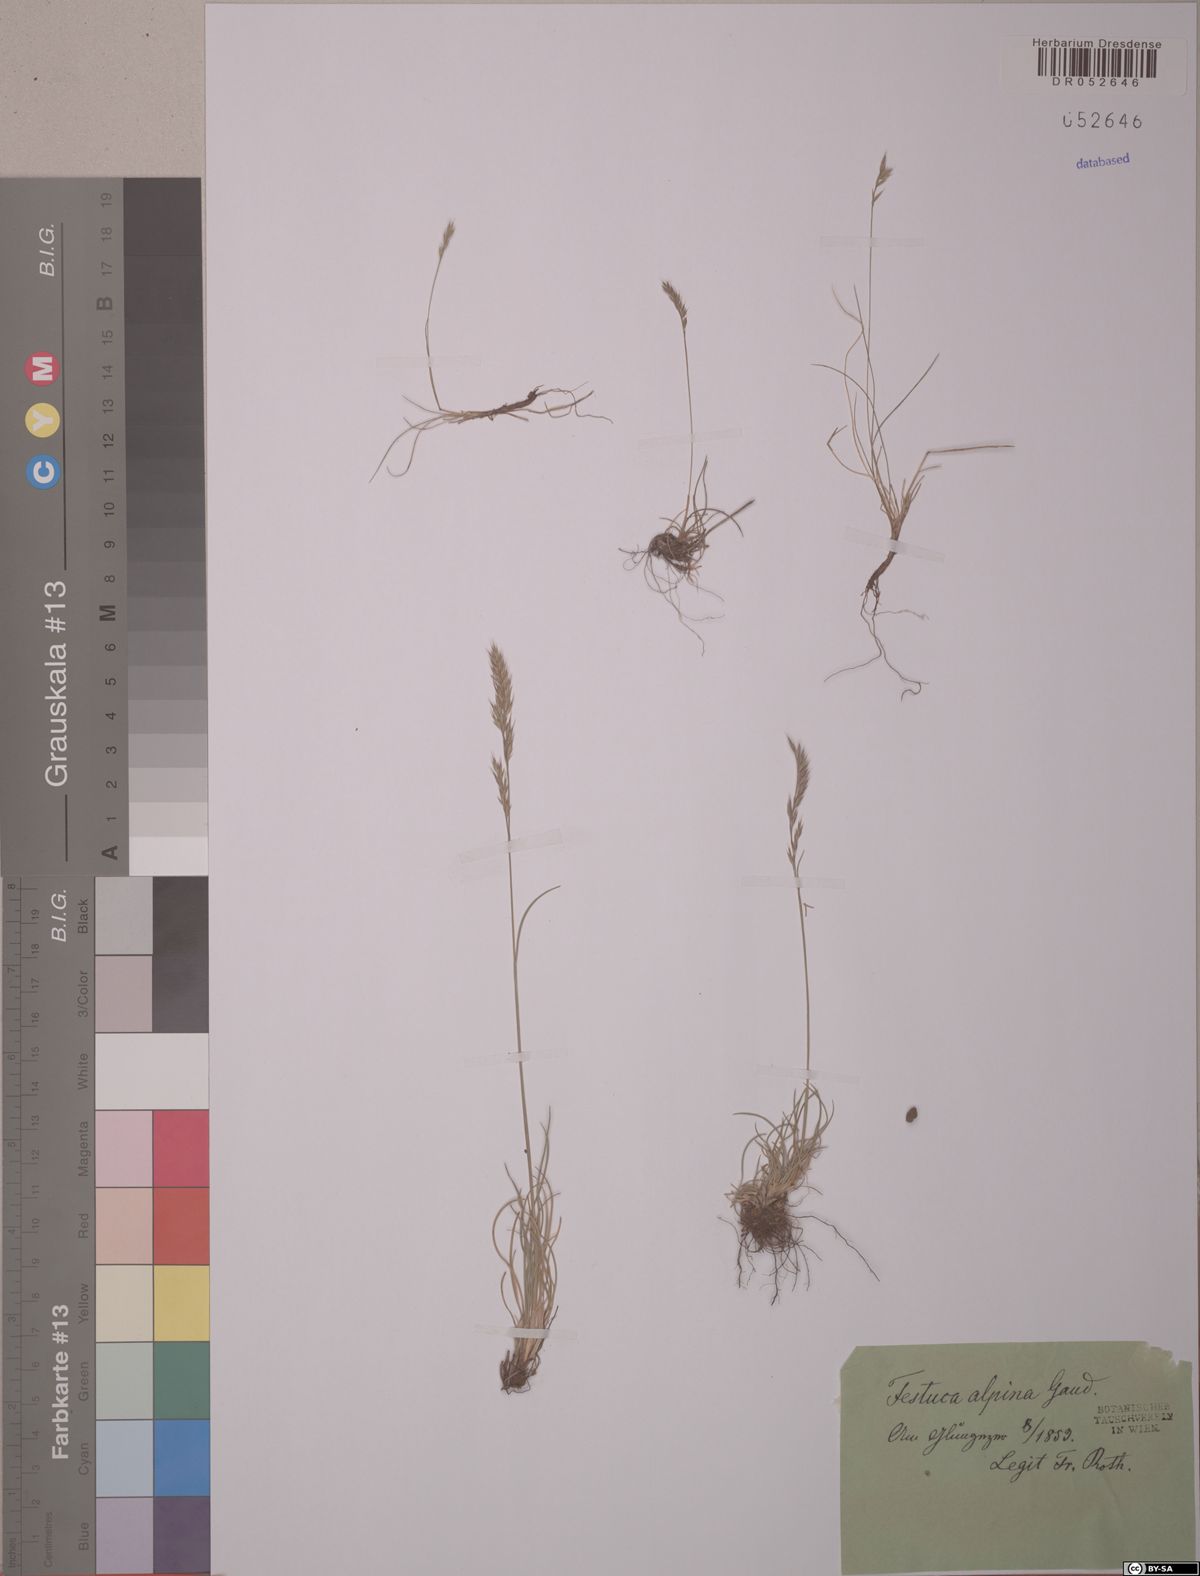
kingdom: Plantae
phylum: Tracheophyta
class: Liliopsida
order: Poales
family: Poaceae
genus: Festuca
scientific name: Festuca alpina
